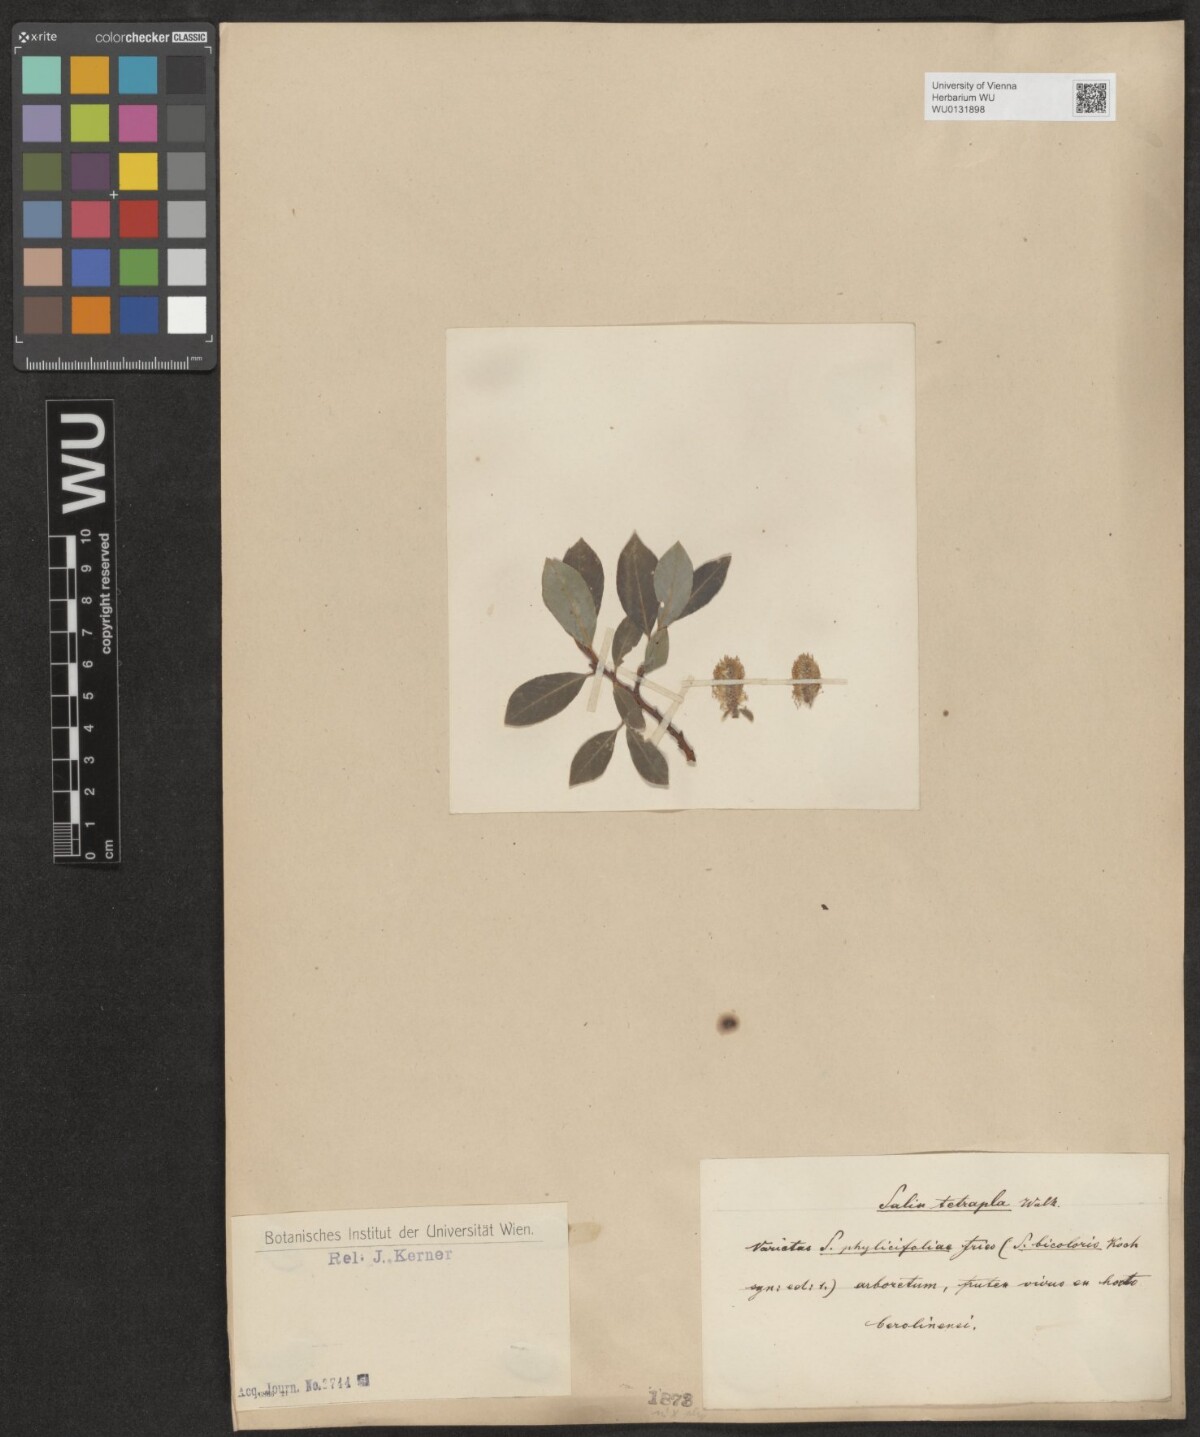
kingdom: Plantae
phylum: Tracheophyta
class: Magnoliopsida
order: Malpighiales
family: Salicaceae
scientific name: Salicaceae
